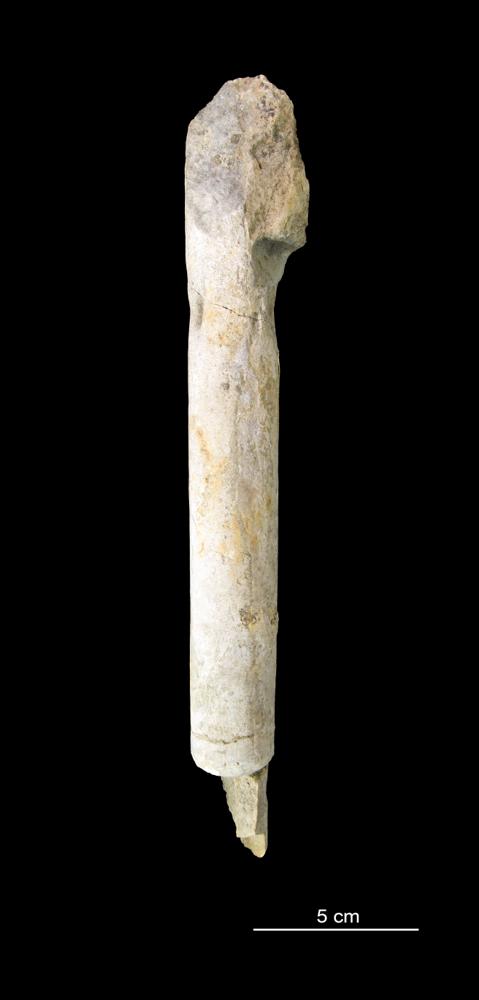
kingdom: Animalia
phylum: Mollusca
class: Cephalopoda
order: Orthocerida
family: Orthoceratidae
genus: Orthoceras
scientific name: Orthoceras regulare
